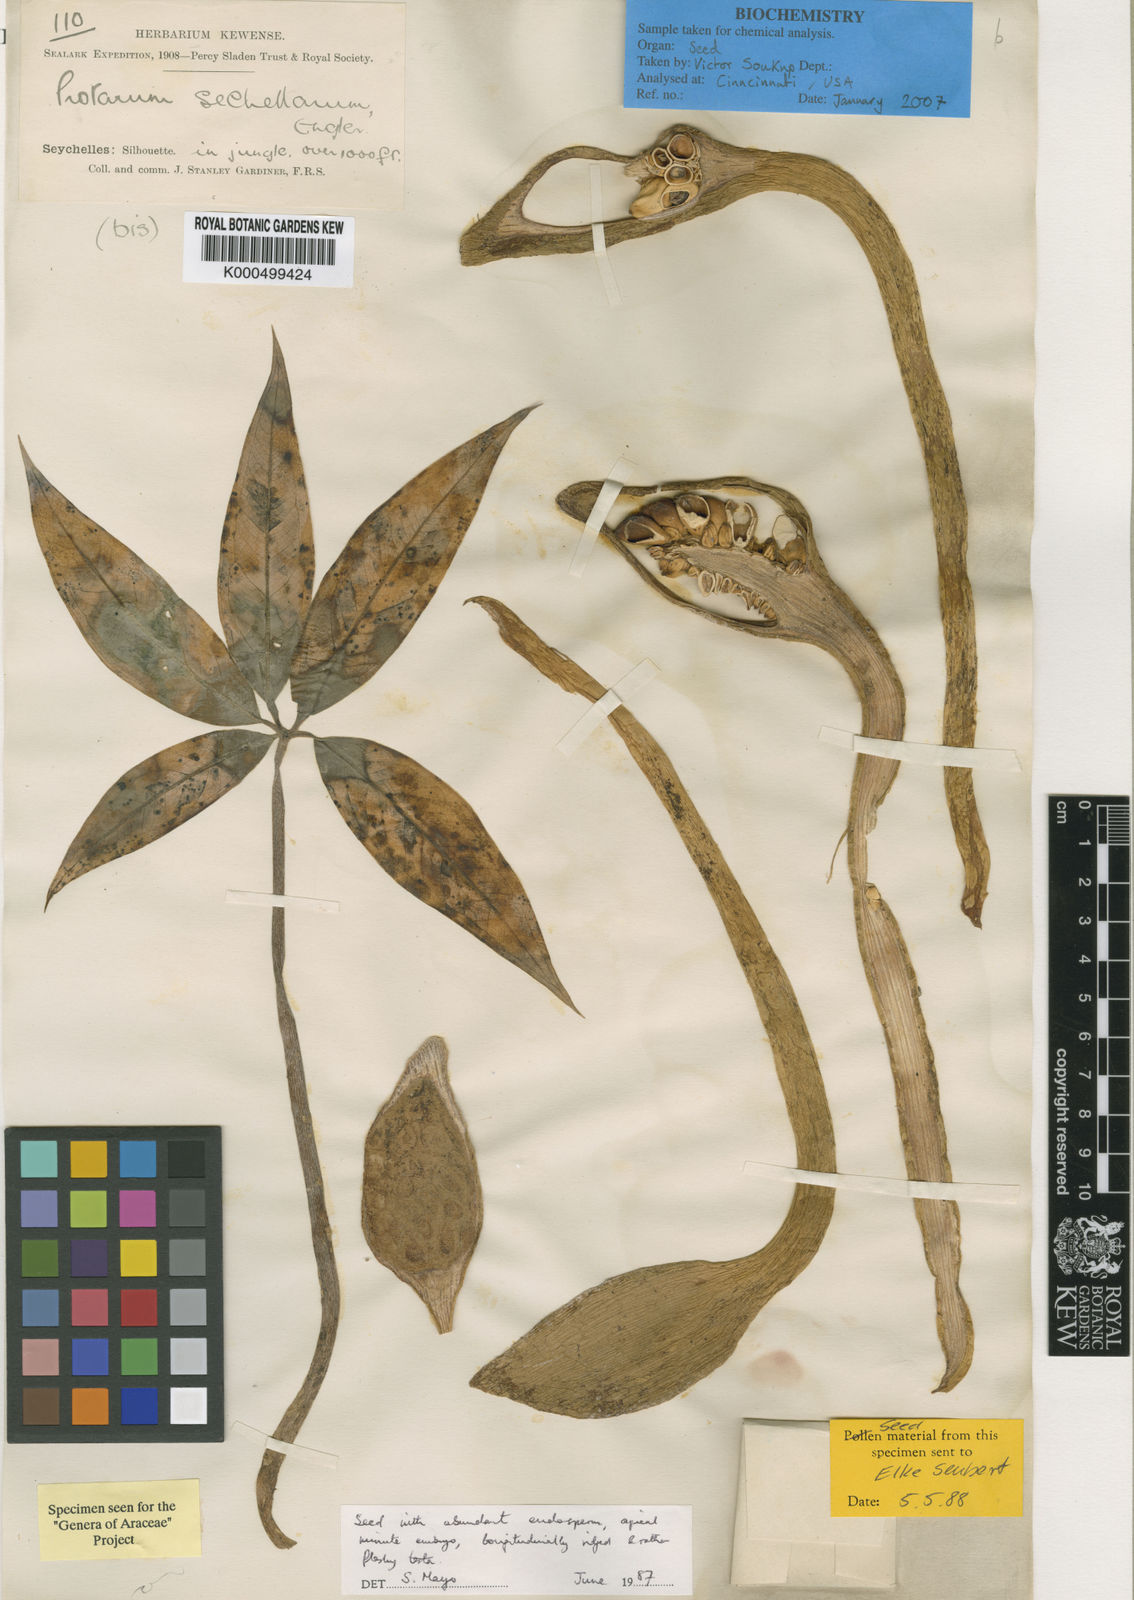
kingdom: Plantae
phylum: Tracheophyta
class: Liliopsida
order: Alismatales
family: Araceae
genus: Protarum
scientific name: Protarum sechellarum
